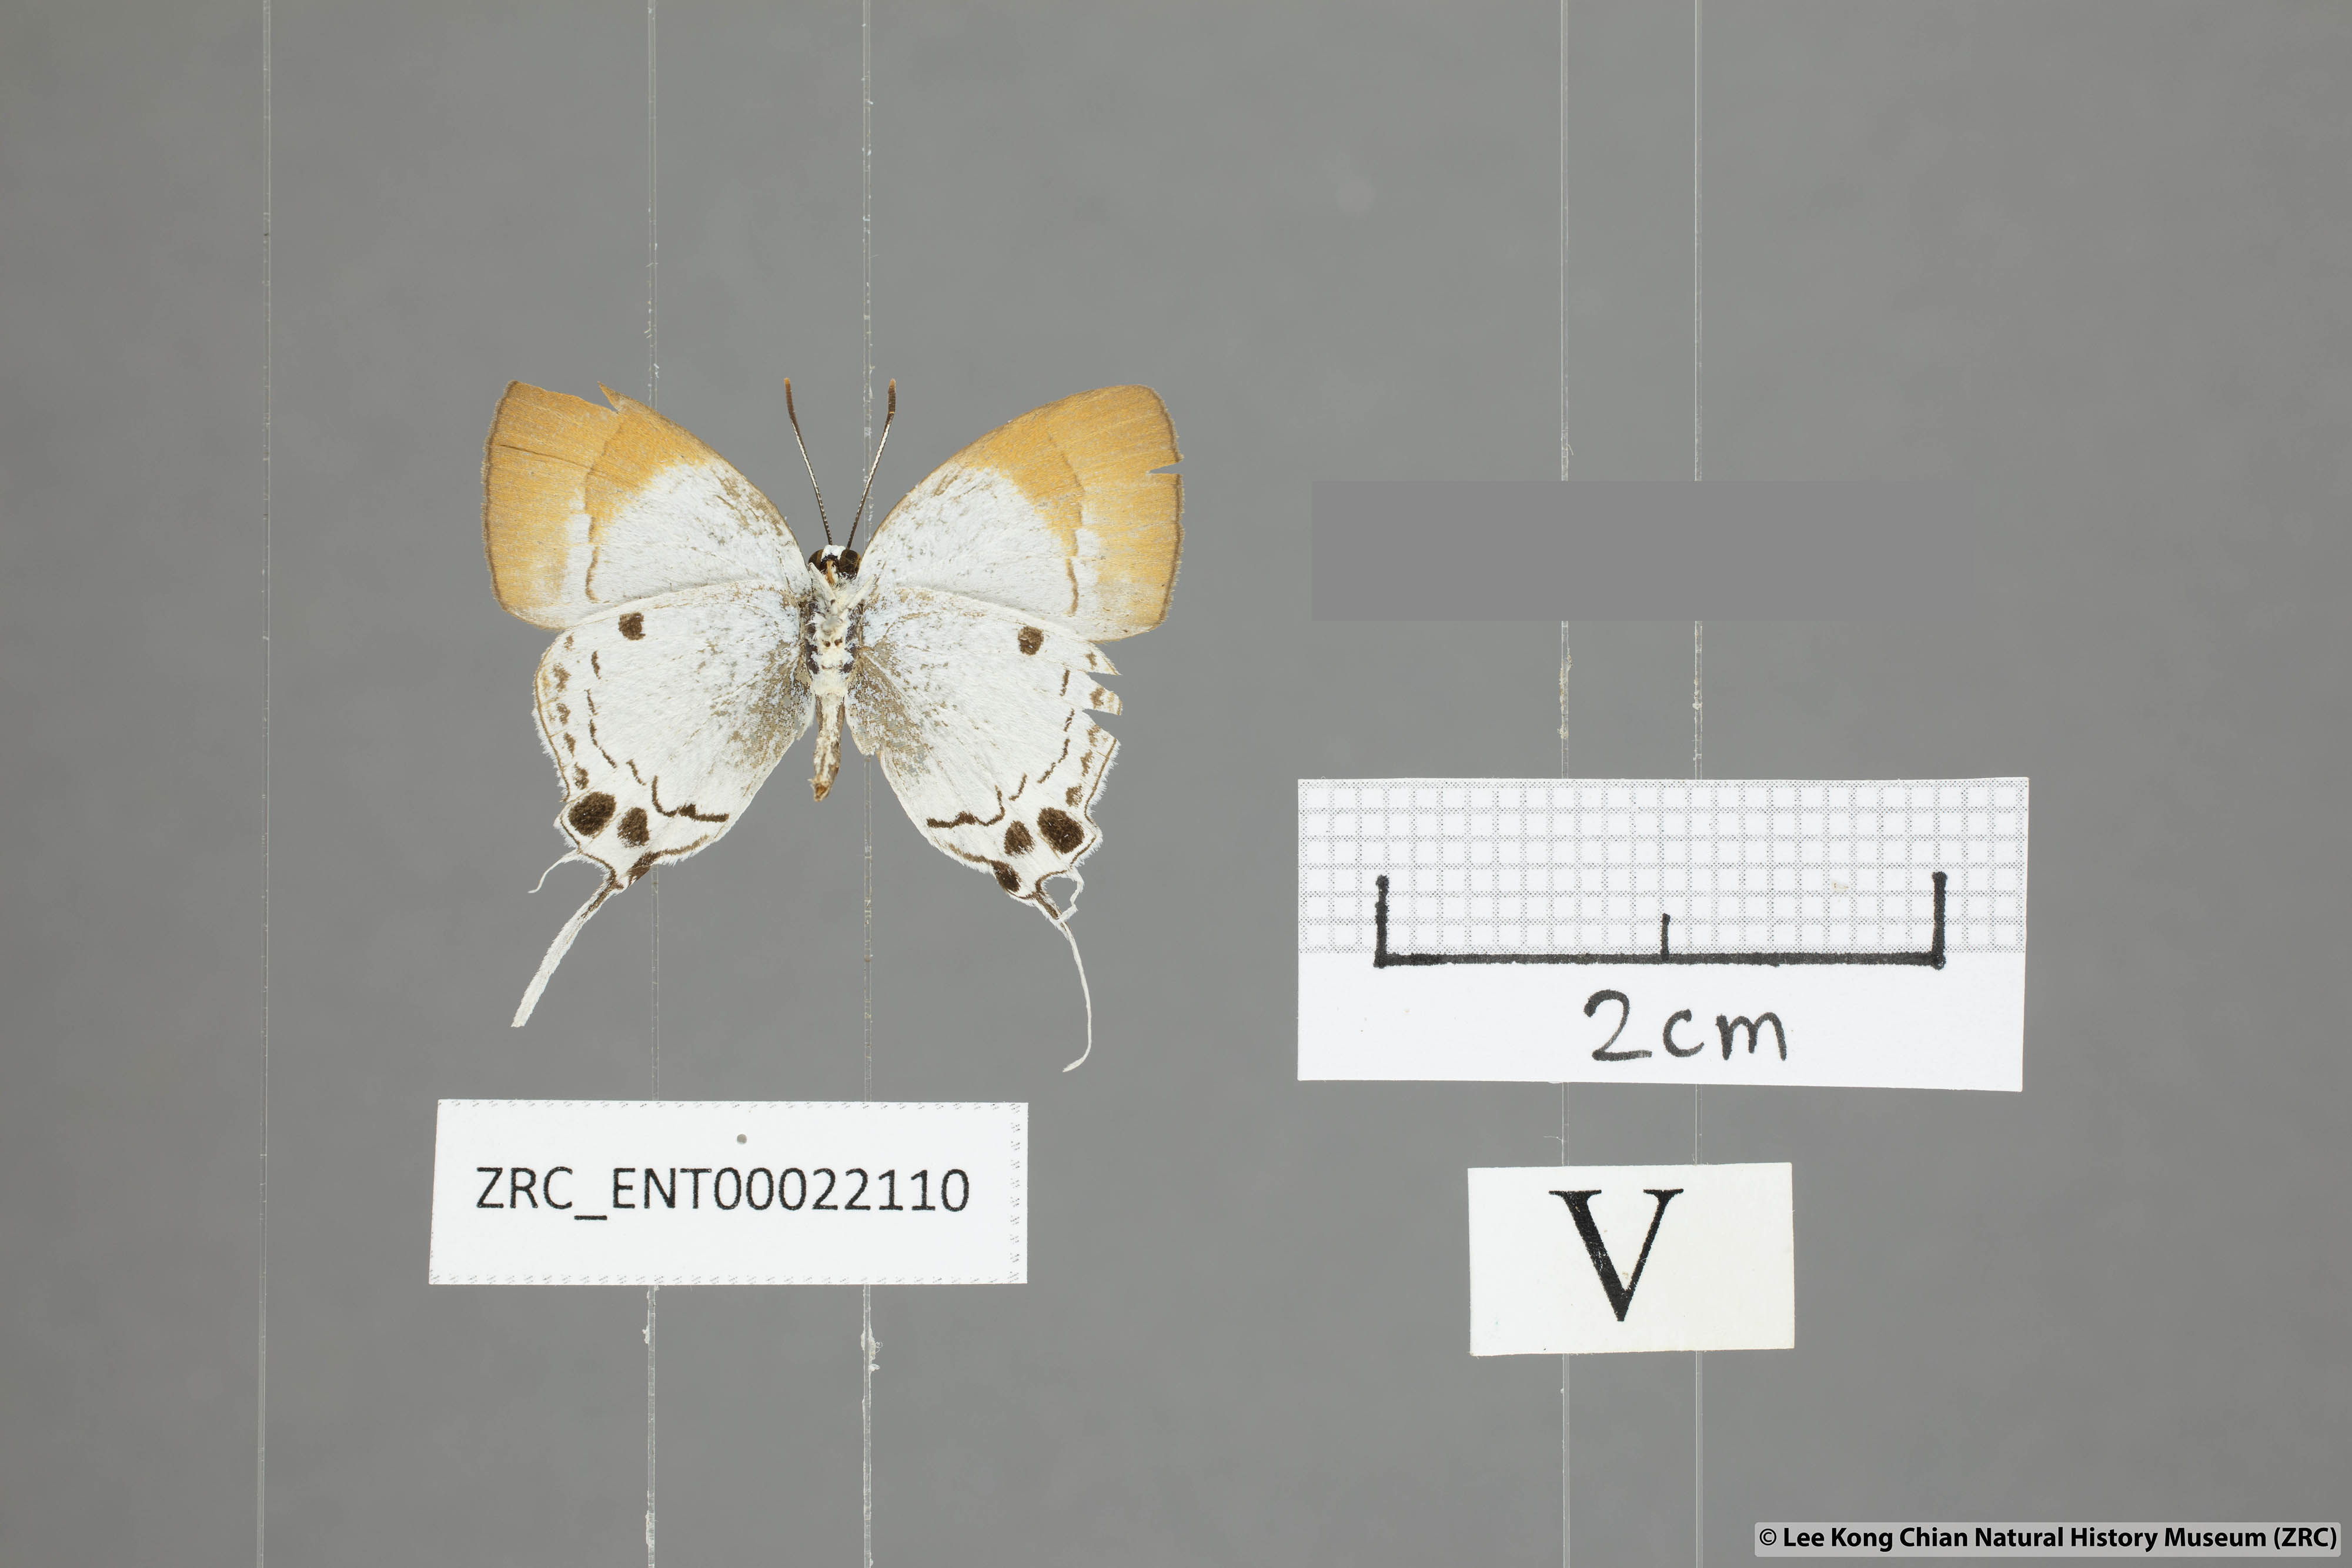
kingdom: Animalia
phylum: Arthropoda
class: Insecta
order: Lepidoptera
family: Lycaenidae
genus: Suasa
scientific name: Suasa lisides
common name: Red imperial
